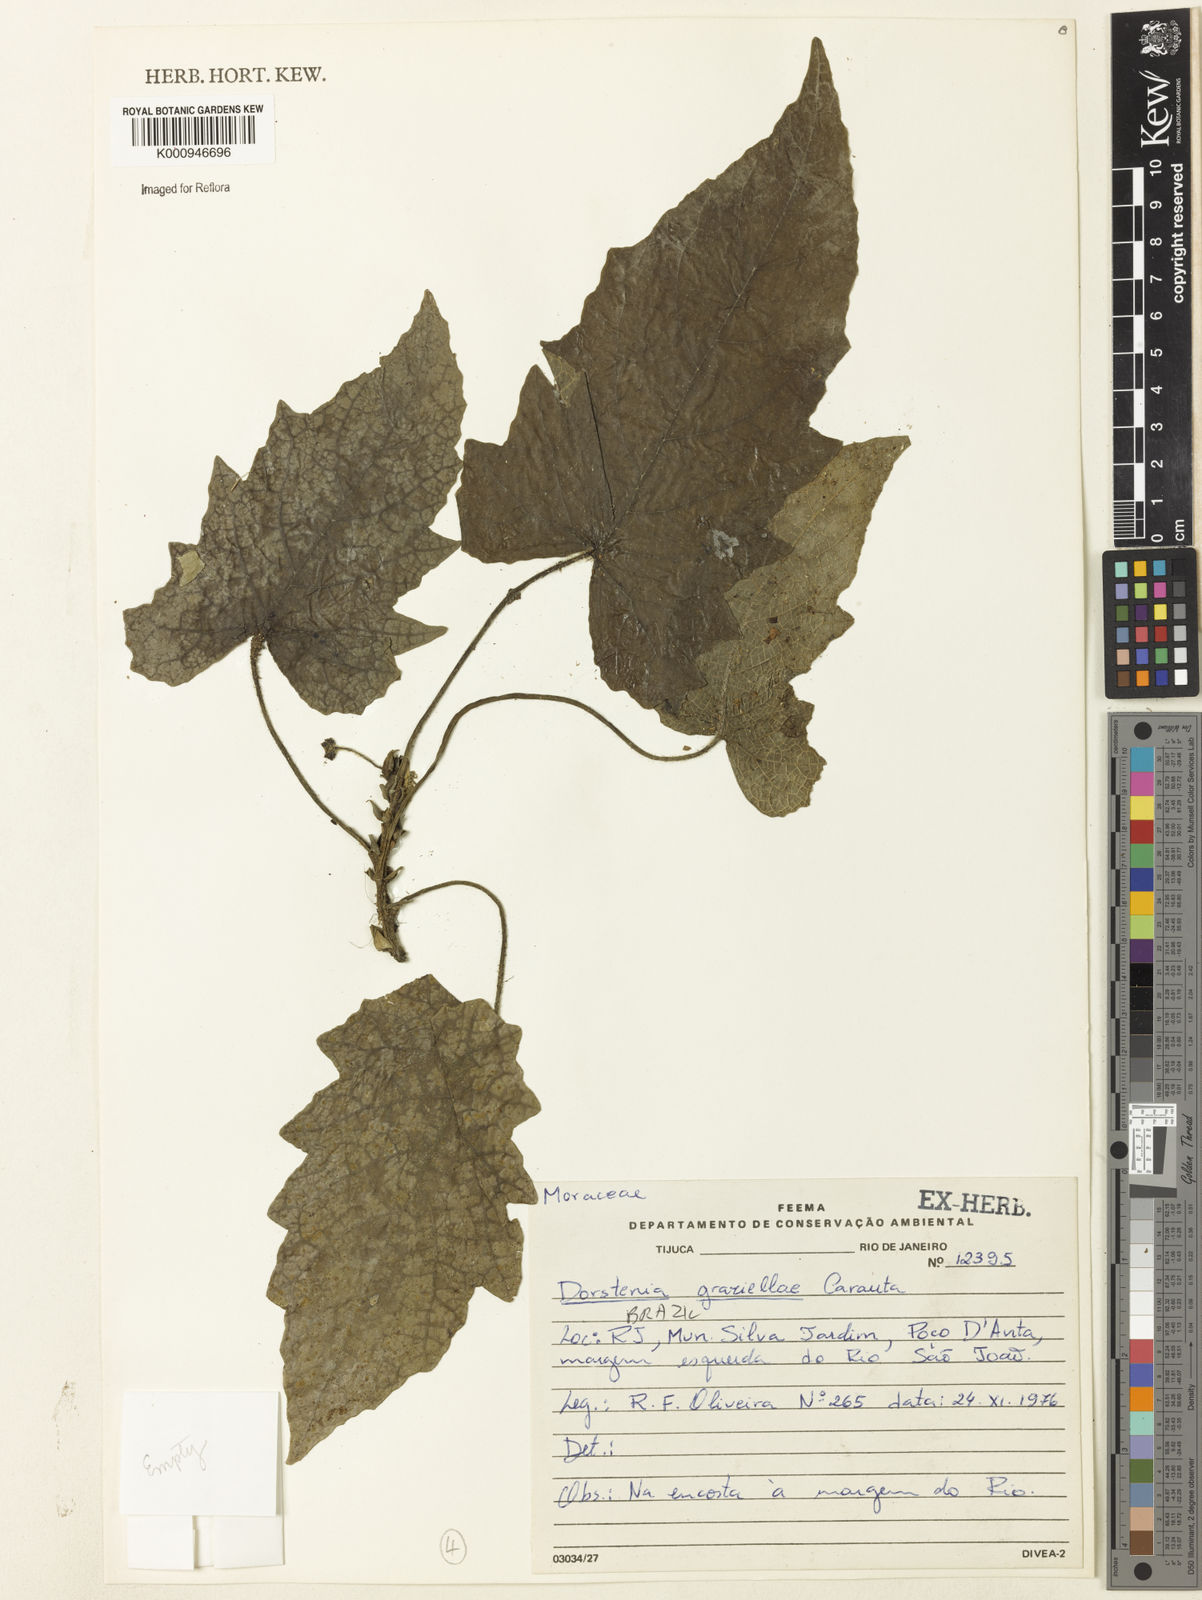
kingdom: Plantae
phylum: Tracheophyta
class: Magnoliopsida
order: Rosales
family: Moraceae
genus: Dorstenia
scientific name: Dorstenia grazielae
